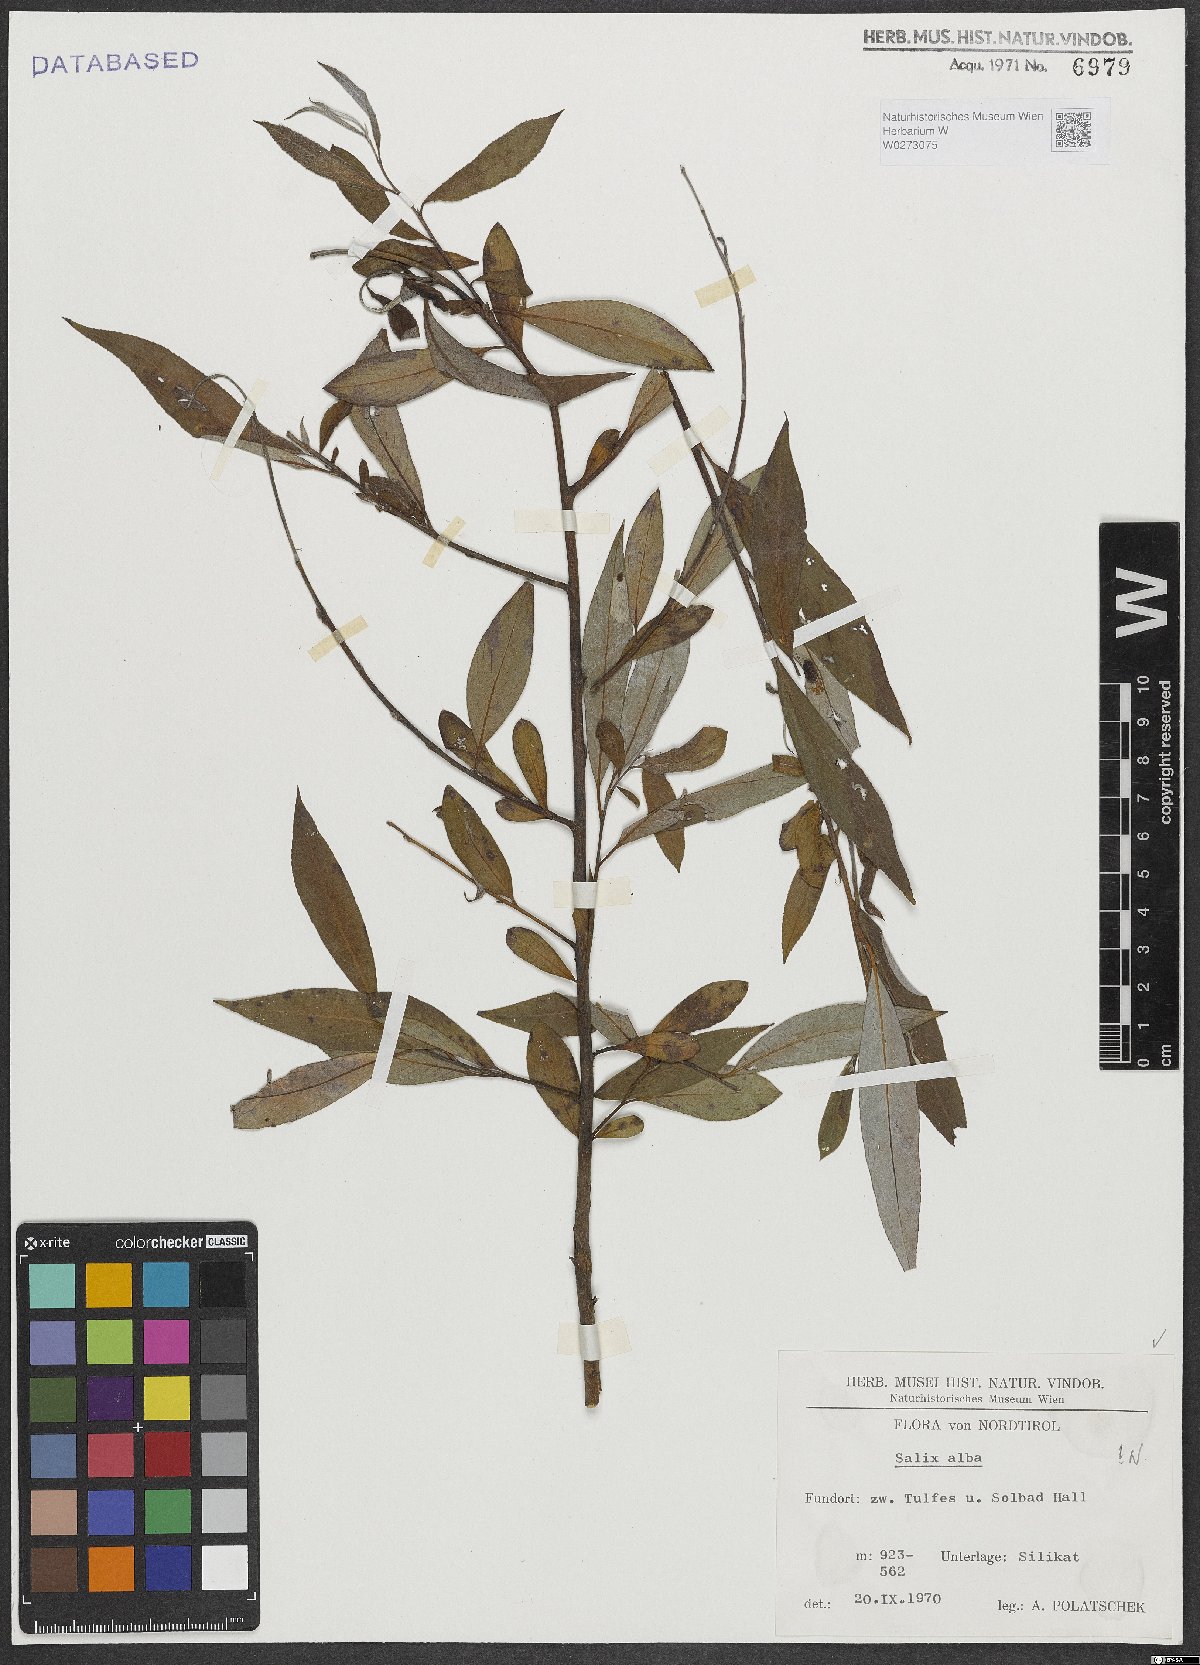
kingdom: Plantae
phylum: Tracheophyta
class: Magnoliopsida
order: Malpighiales
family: Salicaceae
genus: Salix
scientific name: Salix alba
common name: White willow
